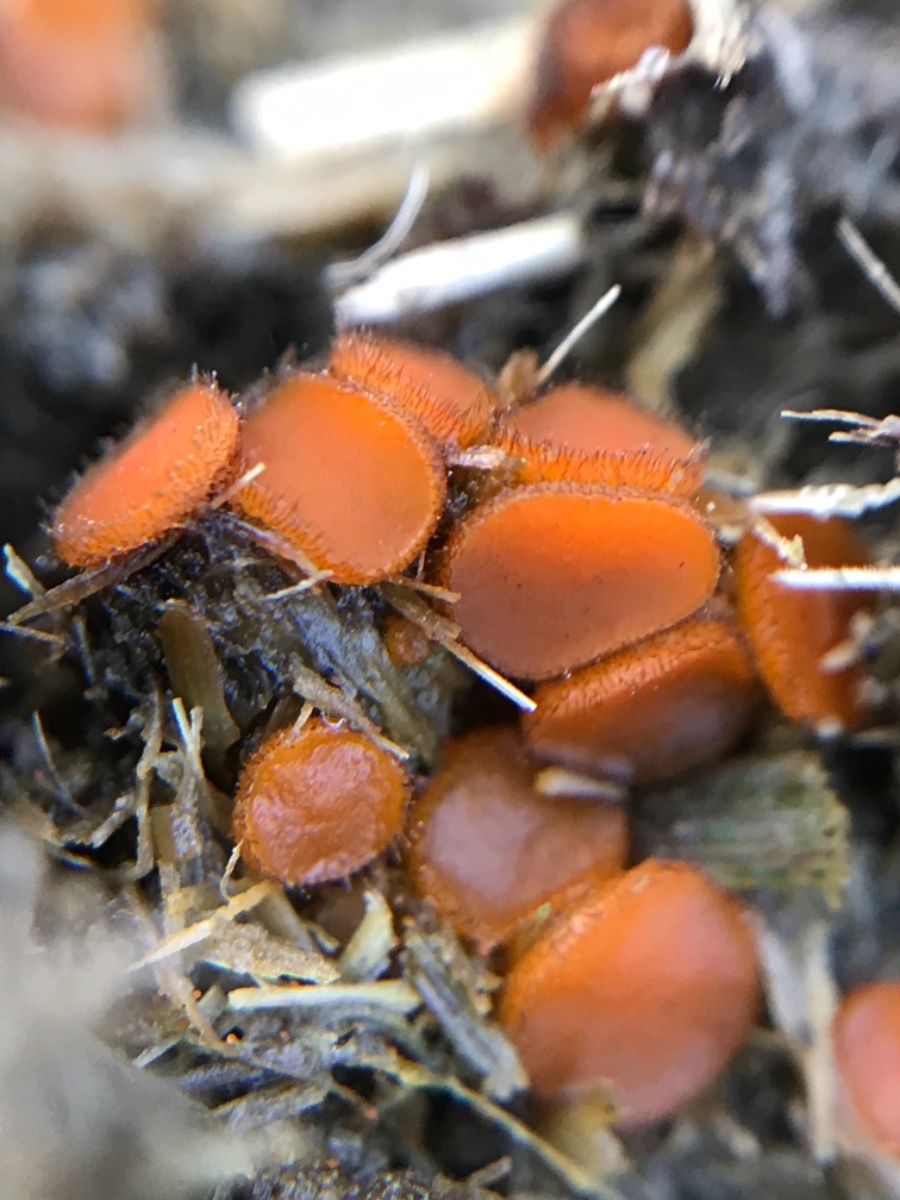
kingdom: Fungi
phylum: Ascomycota
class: Pezizomycetes
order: Pezizales
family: Pyronemataceae
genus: Cheilymenia
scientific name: Cheilymenia
